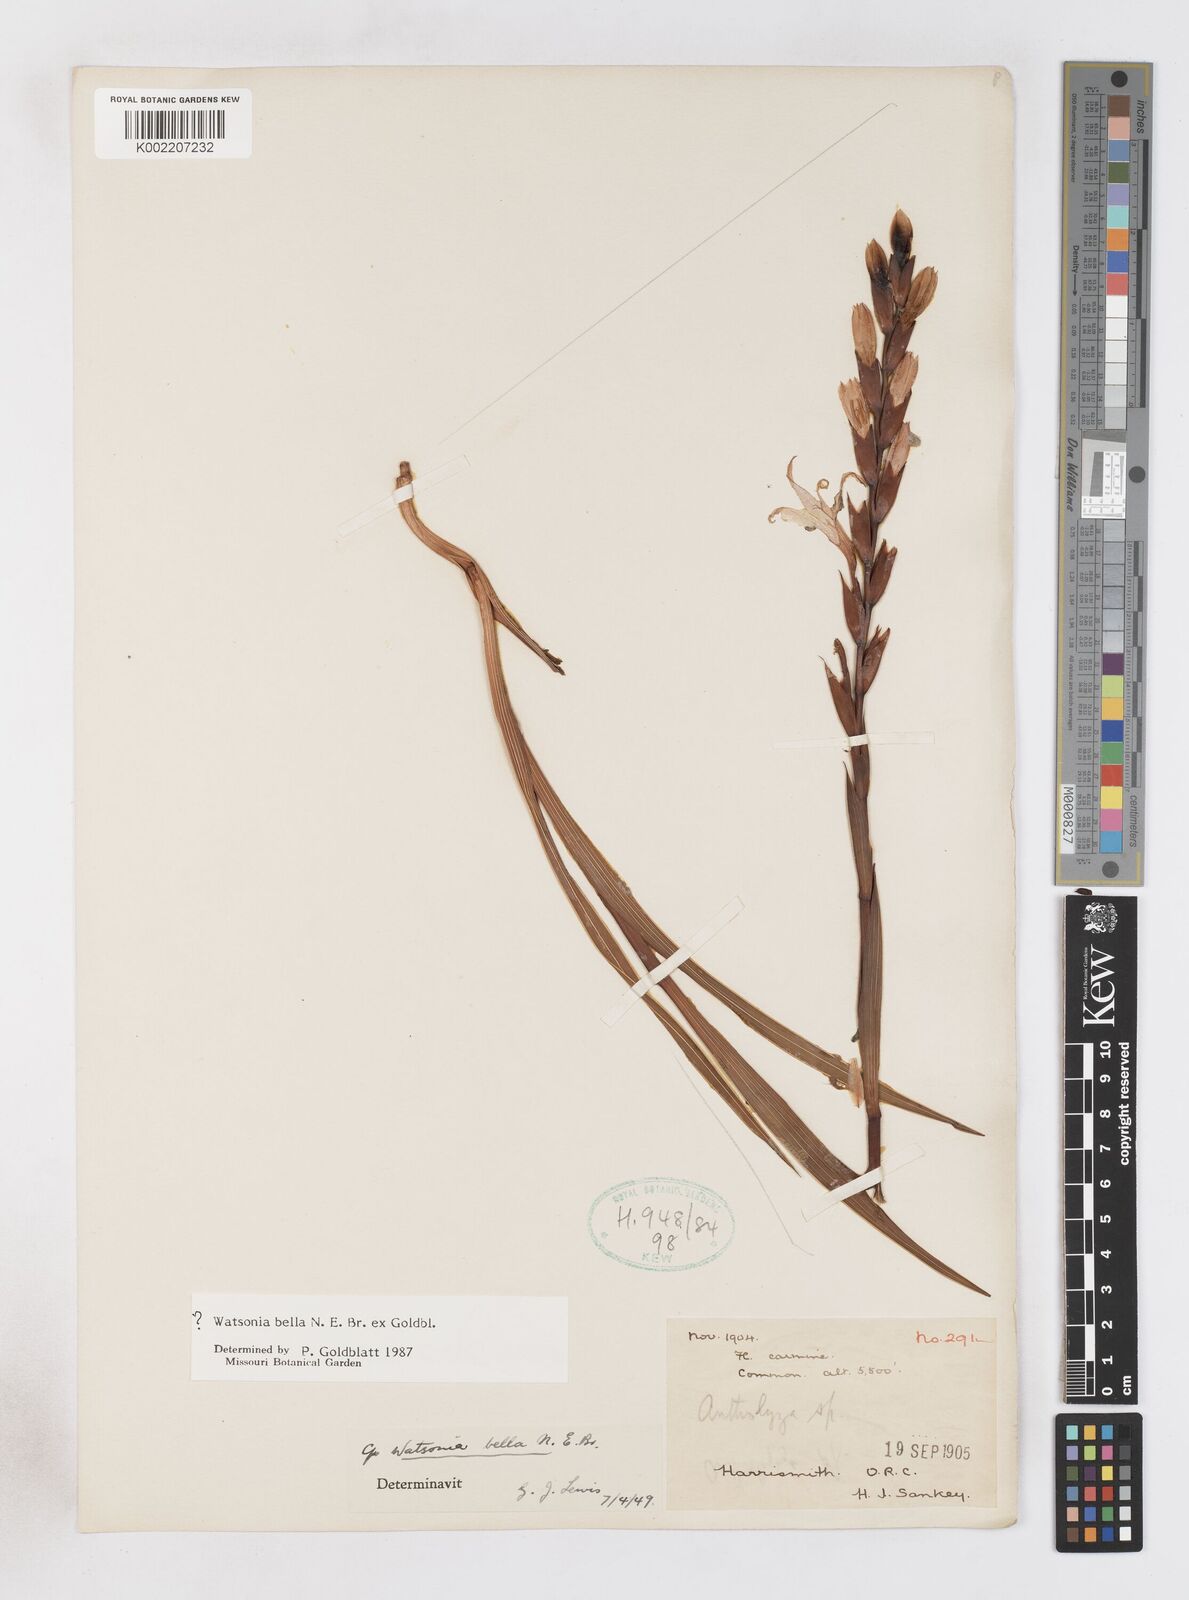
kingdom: Plantae
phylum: Tracheophyta
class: Liliopsida
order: Asparagales
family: Iridaceae
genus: Watsonia
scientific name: Watsonia bella
